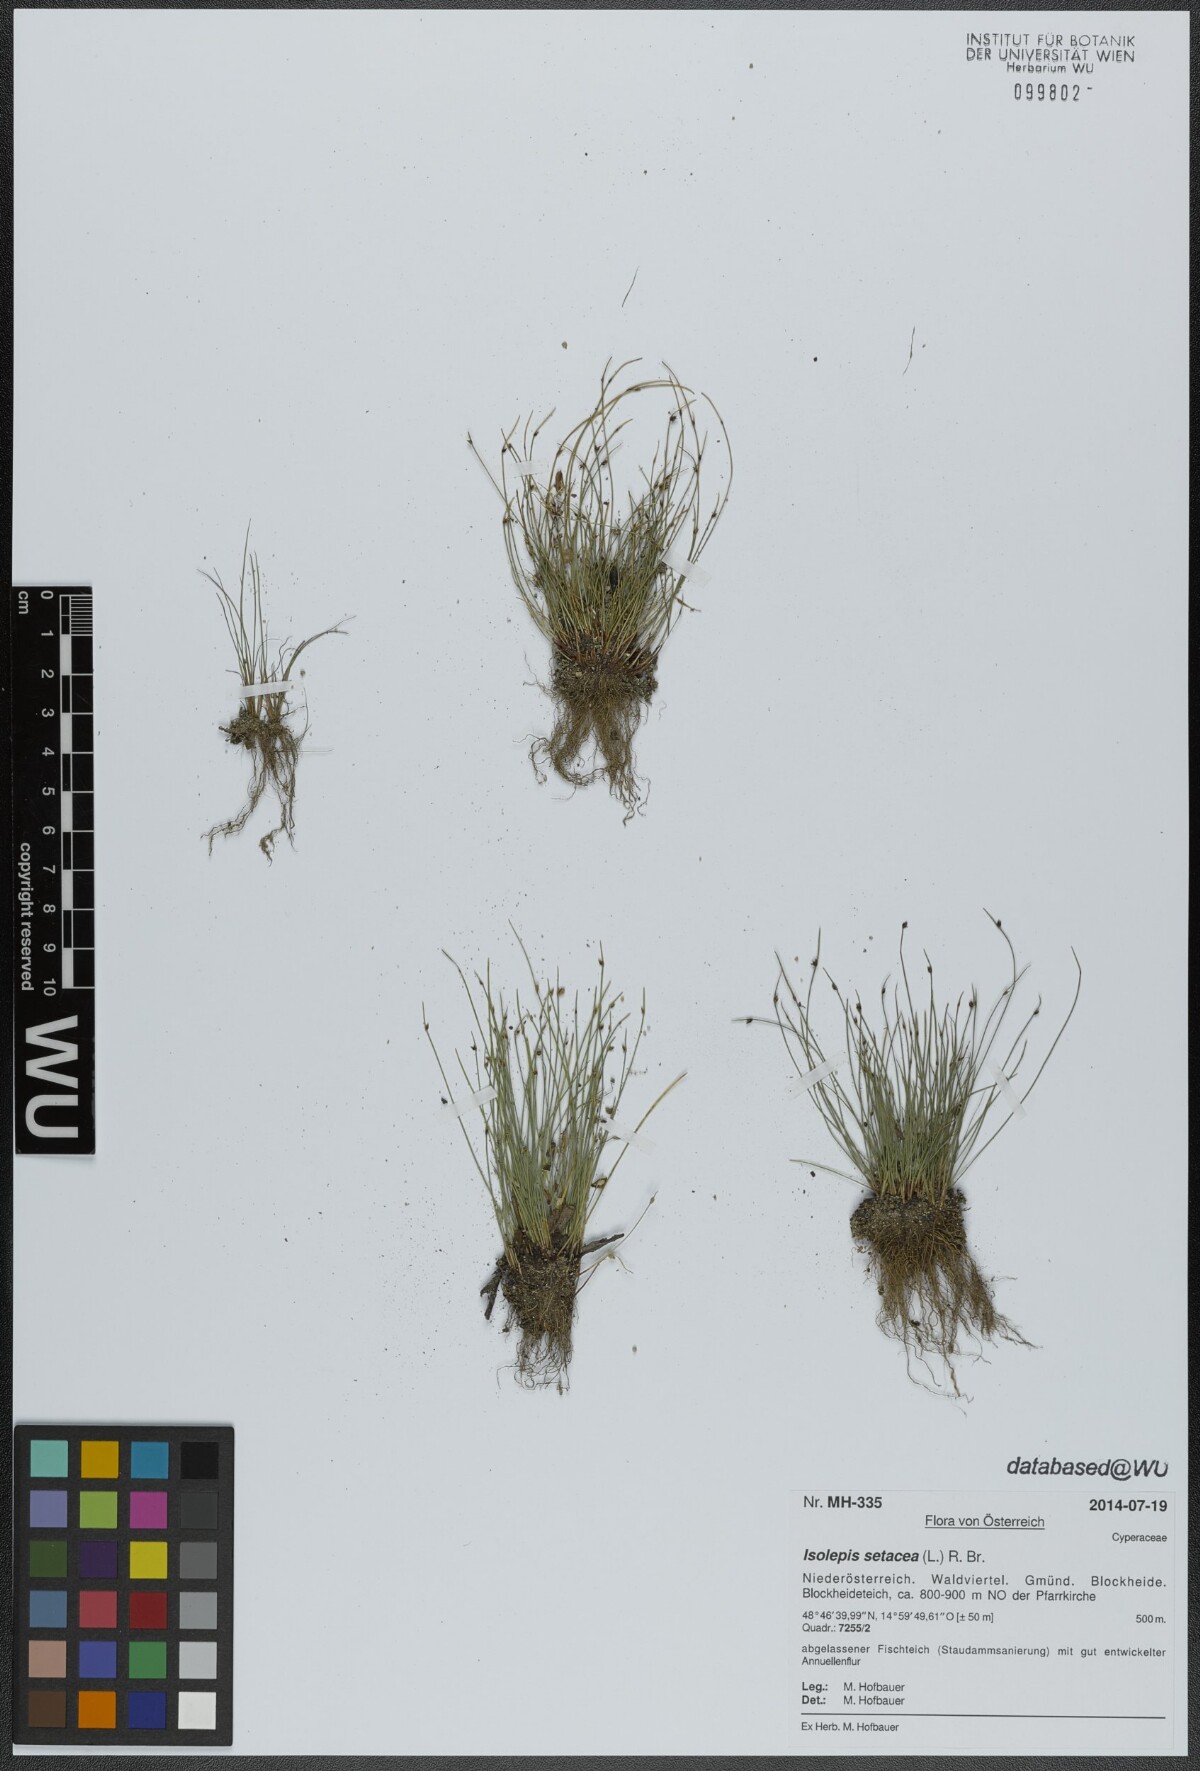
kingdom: Plantae
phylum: Tracheophyta
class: Liliopsida
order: Poales
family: Cyperaceae
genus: Isolepis
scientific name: Isolepis setacea
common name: Bristle club-rush
